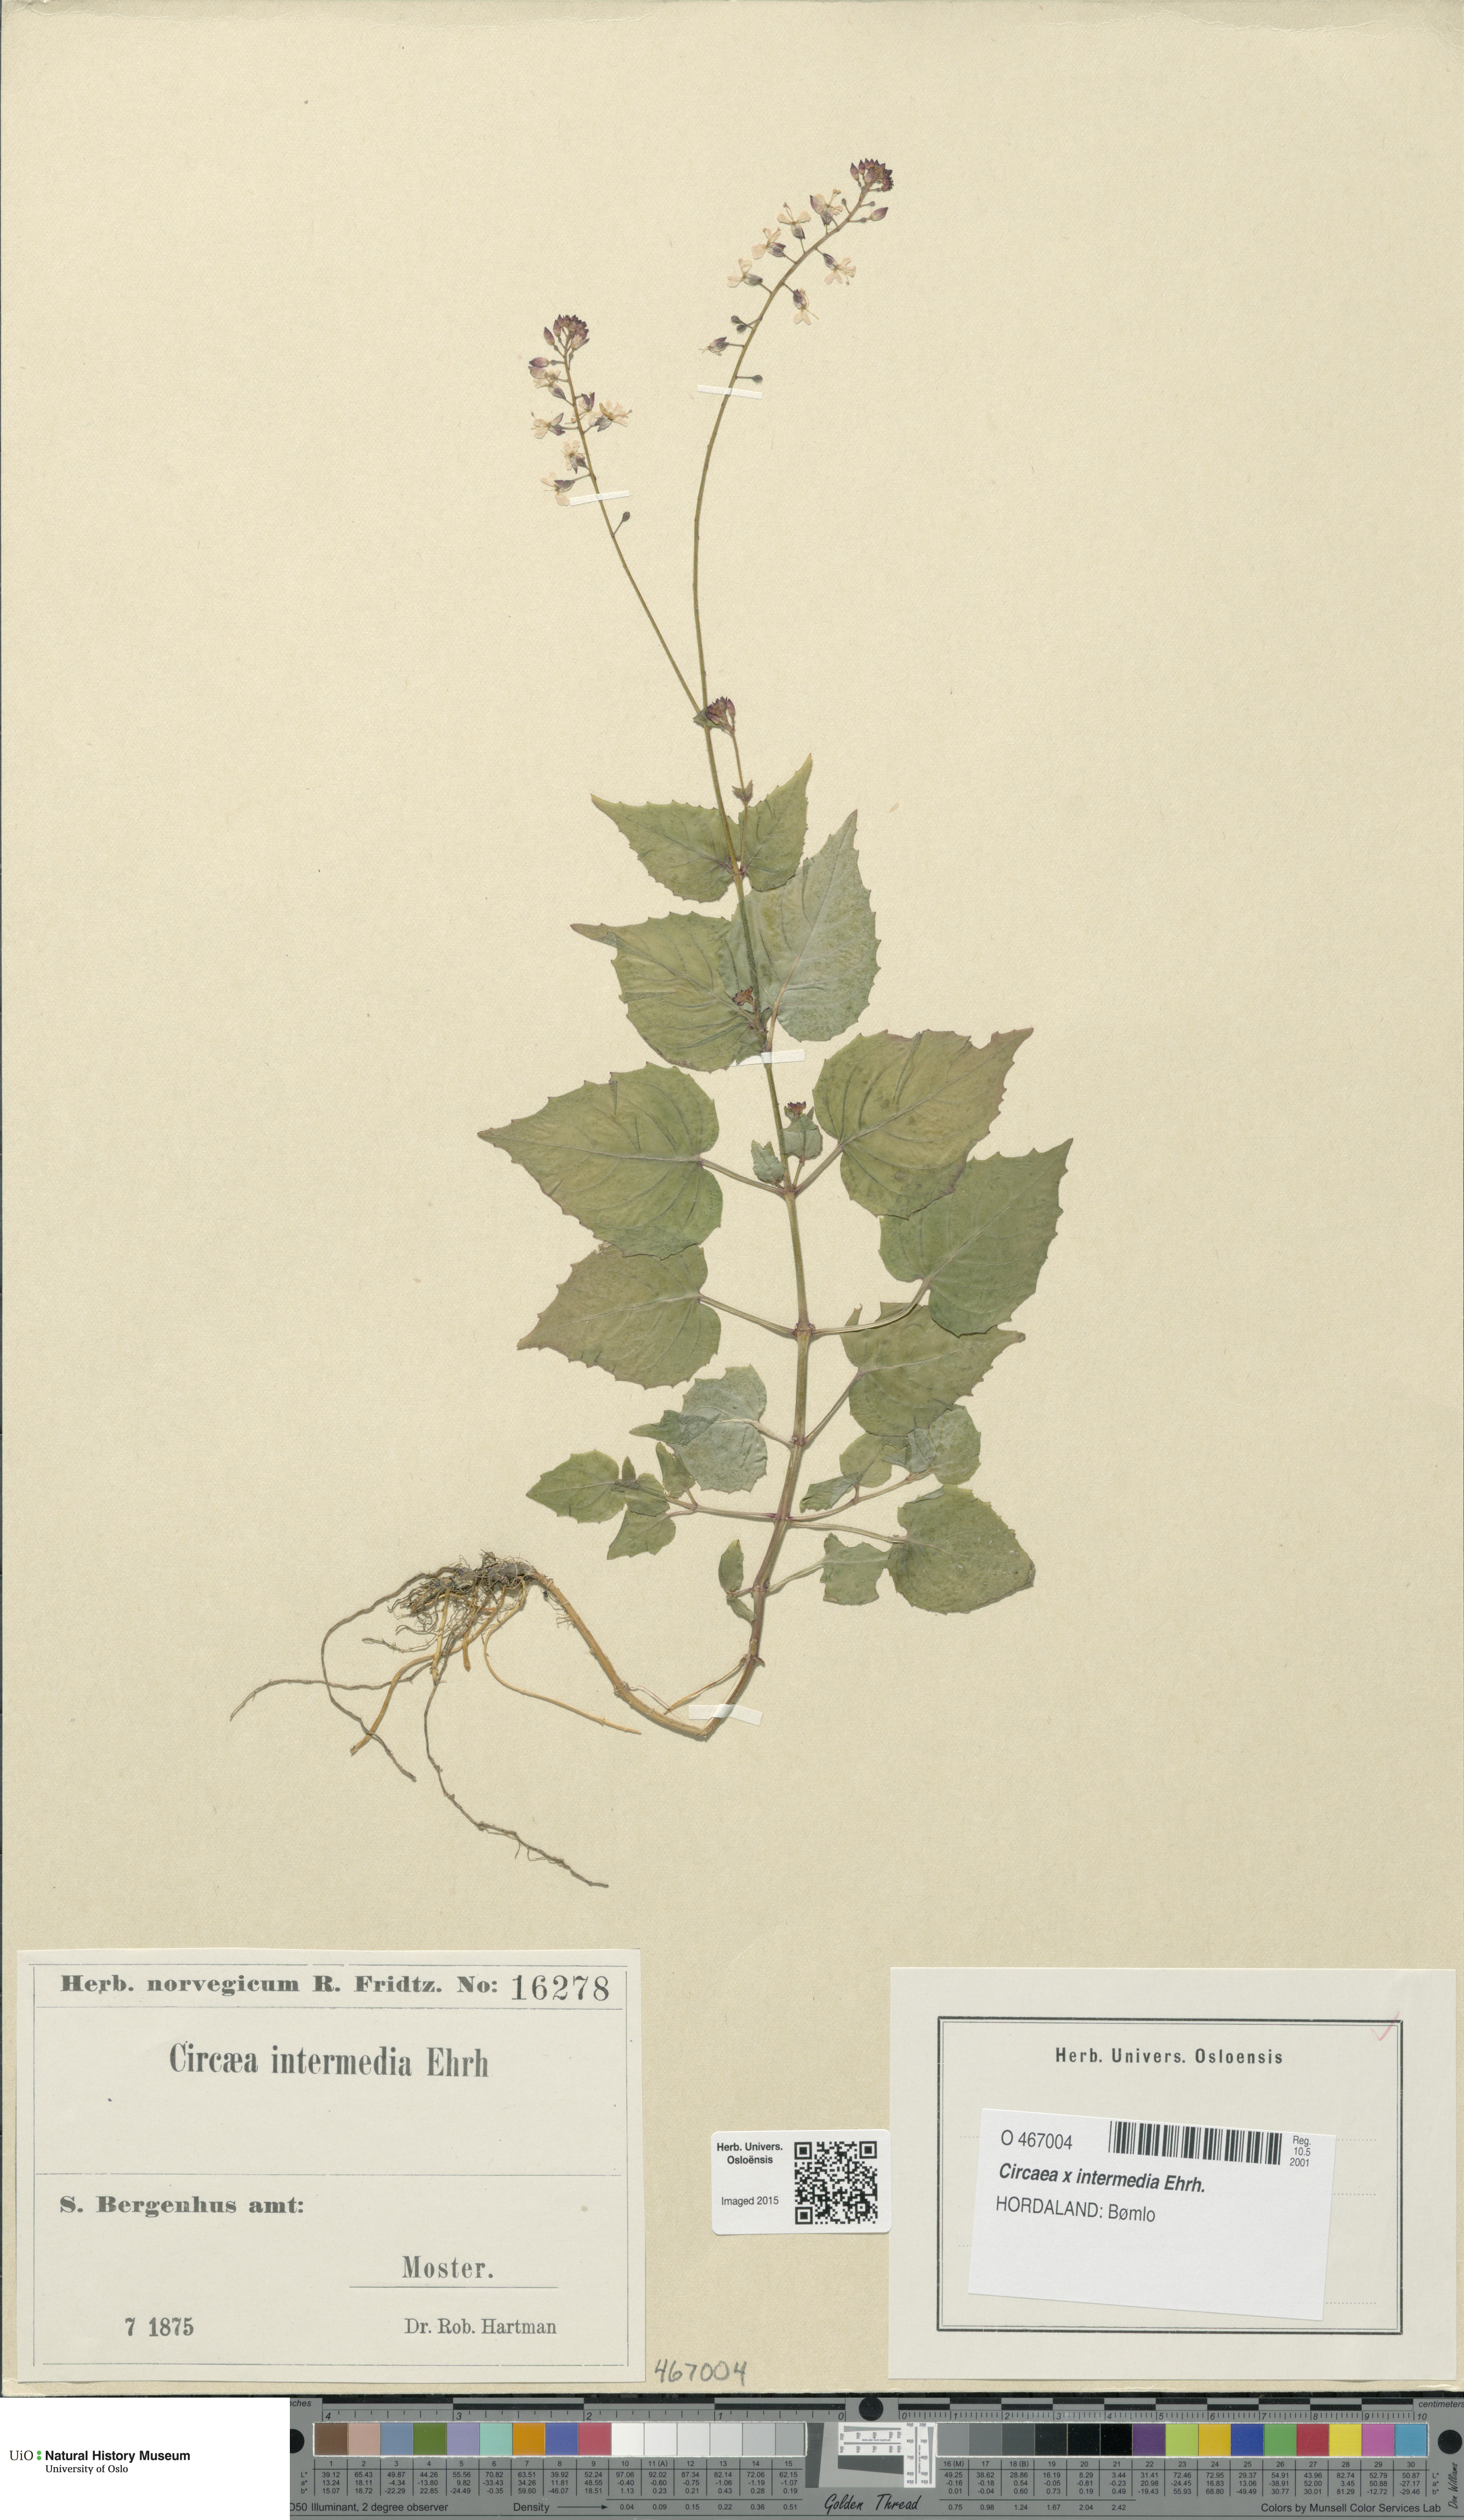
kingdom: Plantae
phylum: Tracheophyta
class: Magnoliopsida
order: Myrtales
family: Onagraceae
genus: Circaea
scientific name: Circaea intermedia
